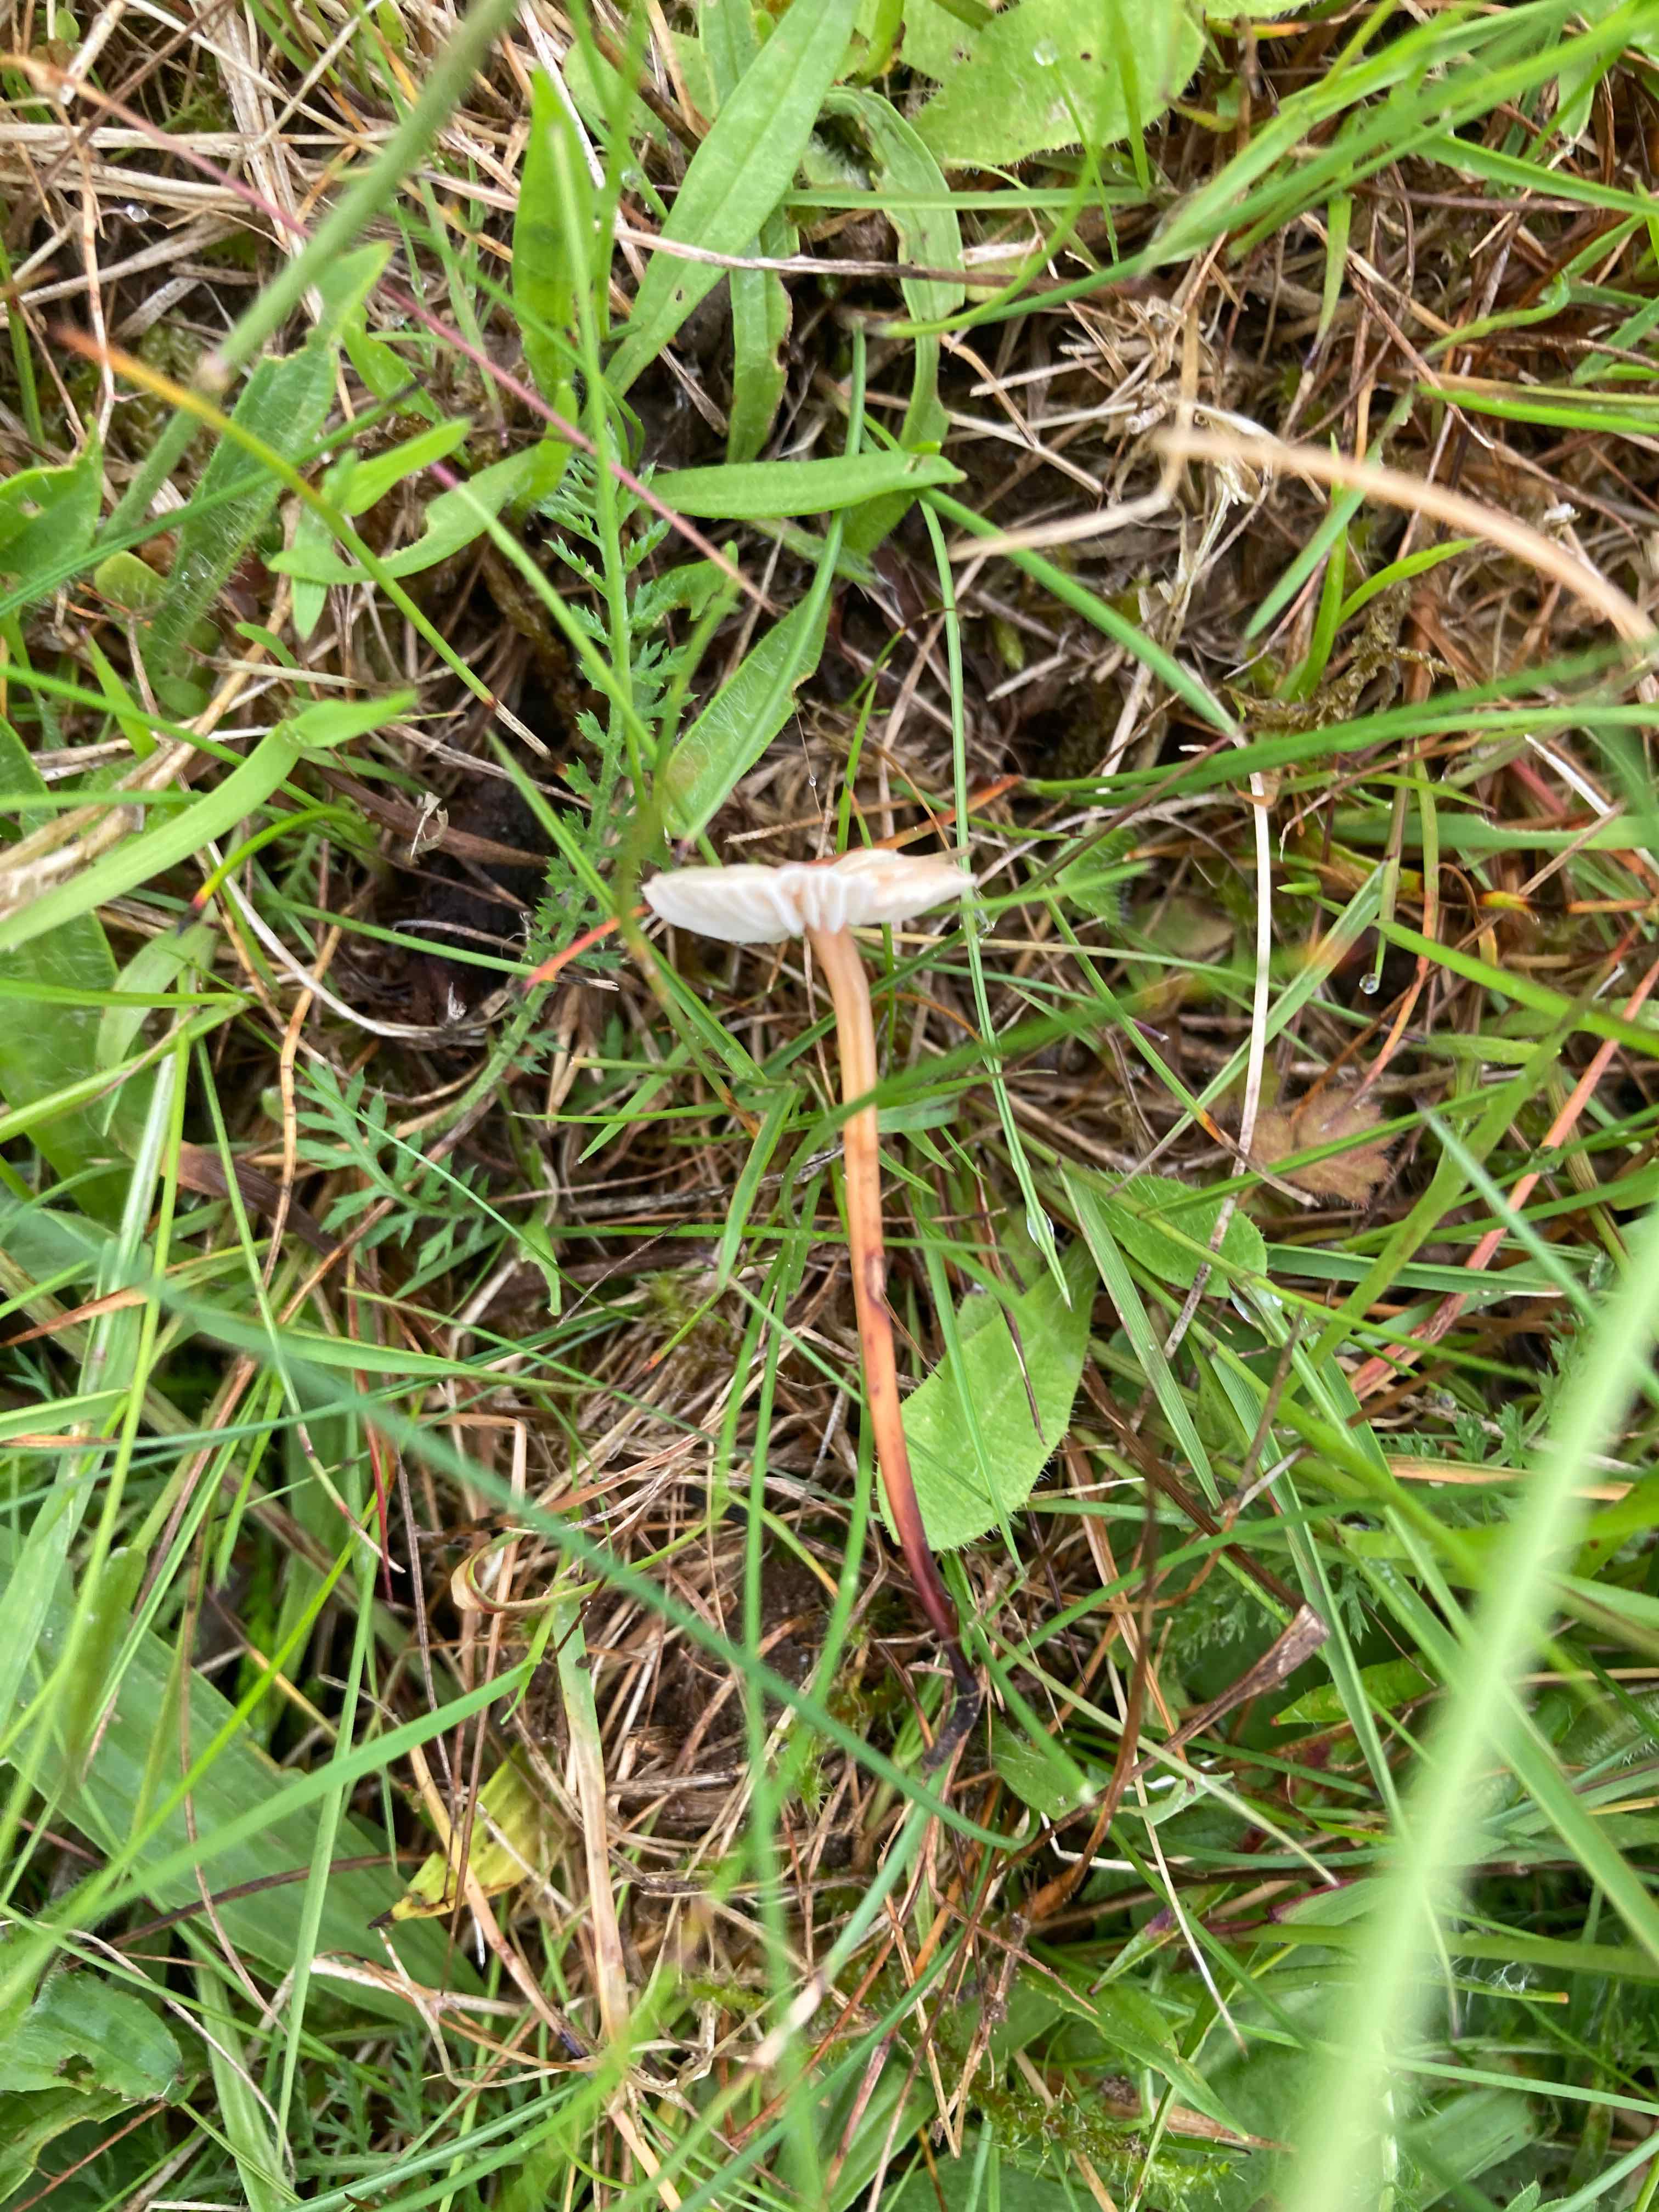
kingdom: Fungi
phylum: Basidiomycota
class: Agaricomycetes
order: Agaricales
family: Omphalotaceae
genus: Mycetinis
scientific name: Mycetinis scorodonius
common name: lille løghat
